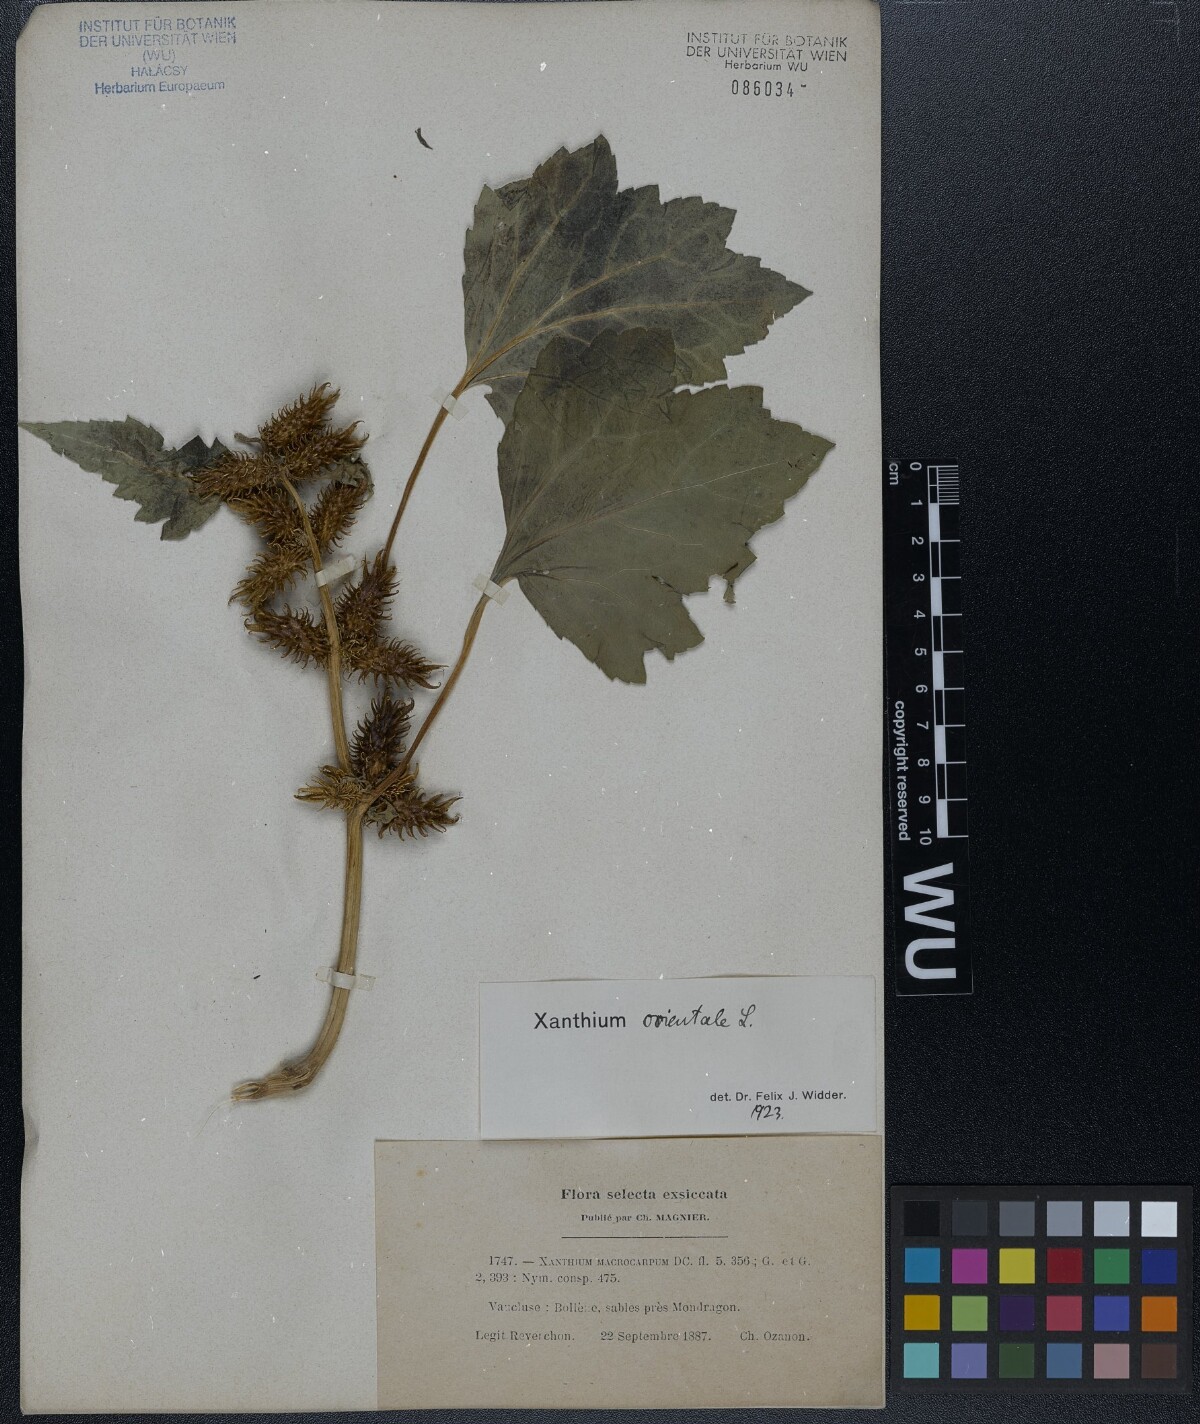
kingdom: Plantae
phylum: Tracheophyta
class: Magnoliopsida
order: Asterales
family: Asteraceae
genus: Xanthium
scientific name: Xanthium orientale
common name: Californian burr
